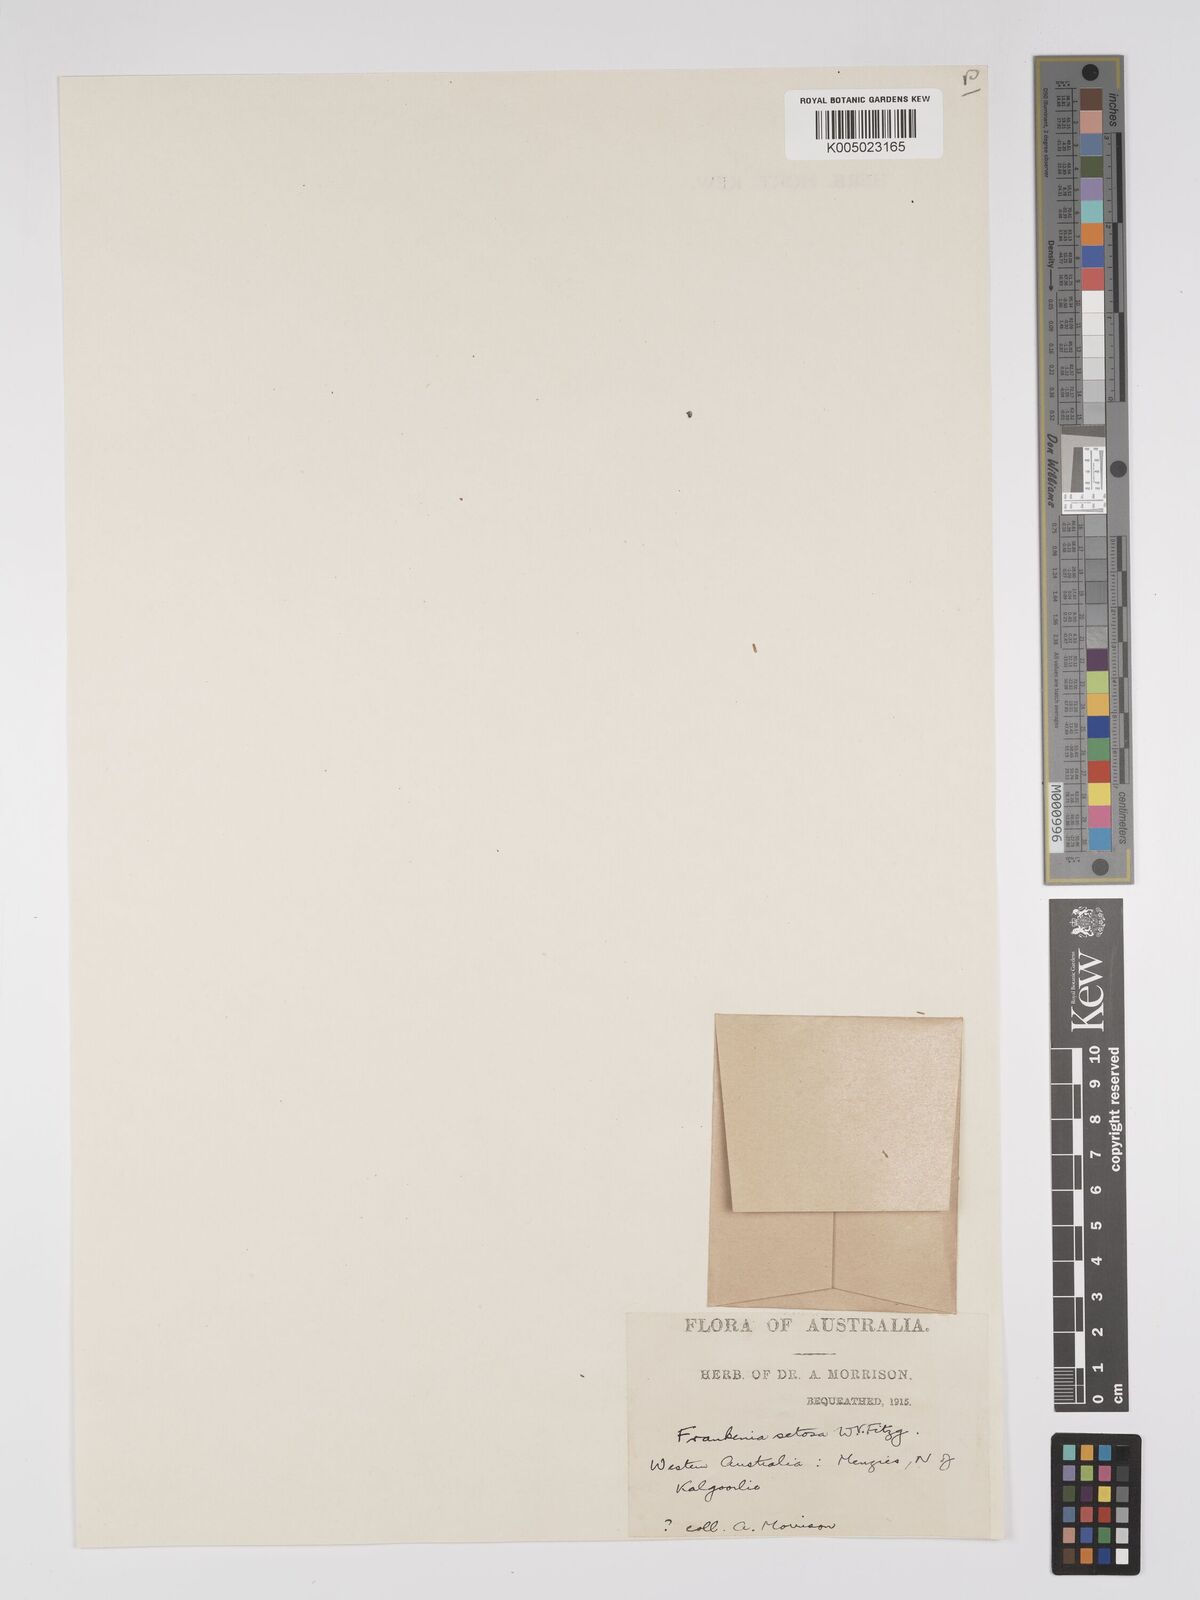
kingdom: Plantae
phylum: Tracheophyta
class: Magnoliopsida
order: Caryophyllales
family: Frankeniaceae
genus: Frankenia
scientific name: Frankenia setosa
